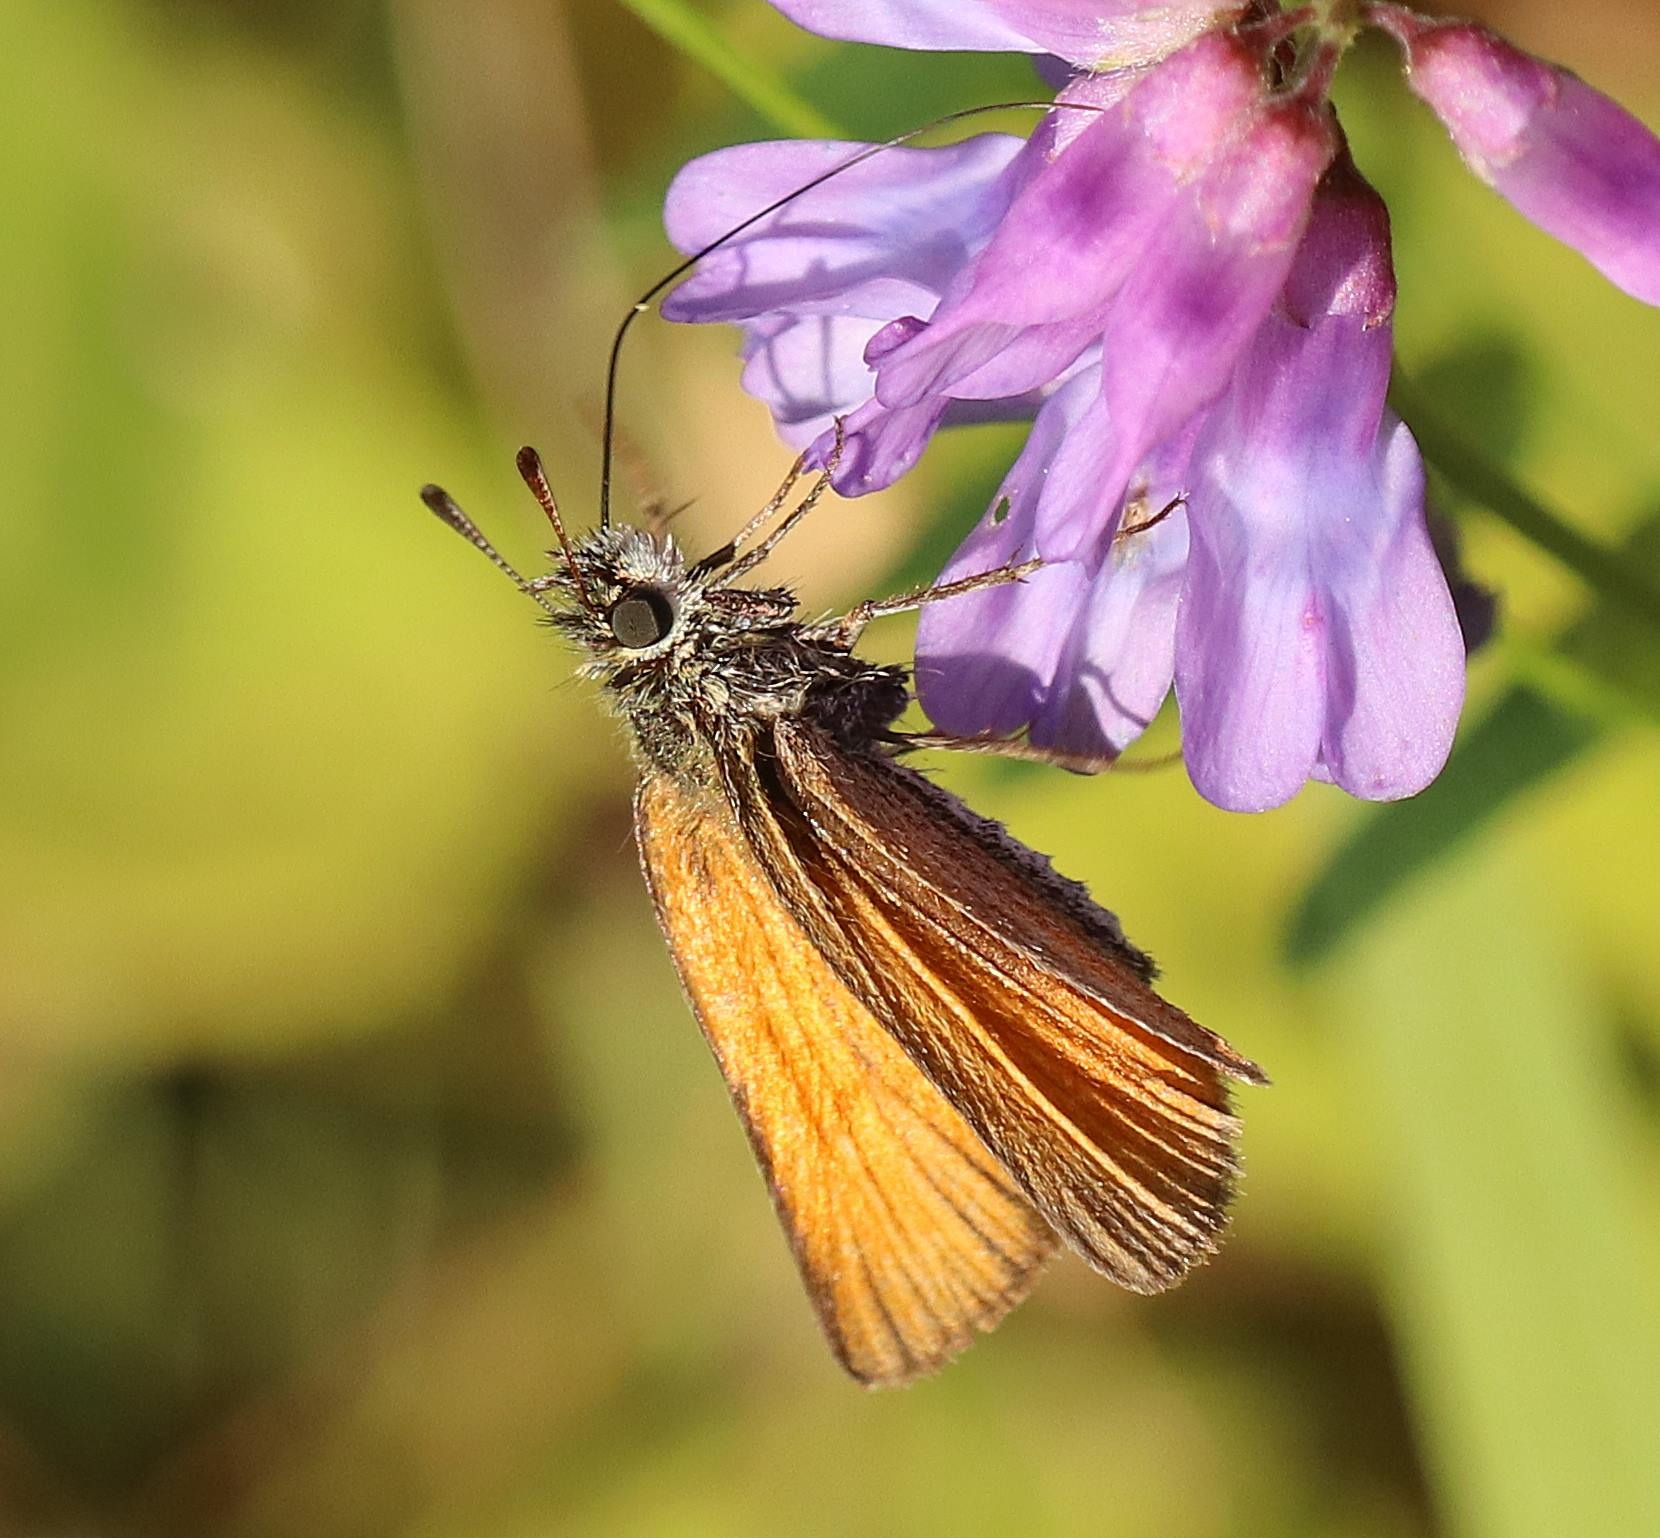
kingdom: Animalia
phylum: Arthropoda
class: Insecta
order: Lepidoptera
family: Hesperiidae
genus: Thymelicus
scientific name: Thymelicus lineola
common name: Stregbredpande
